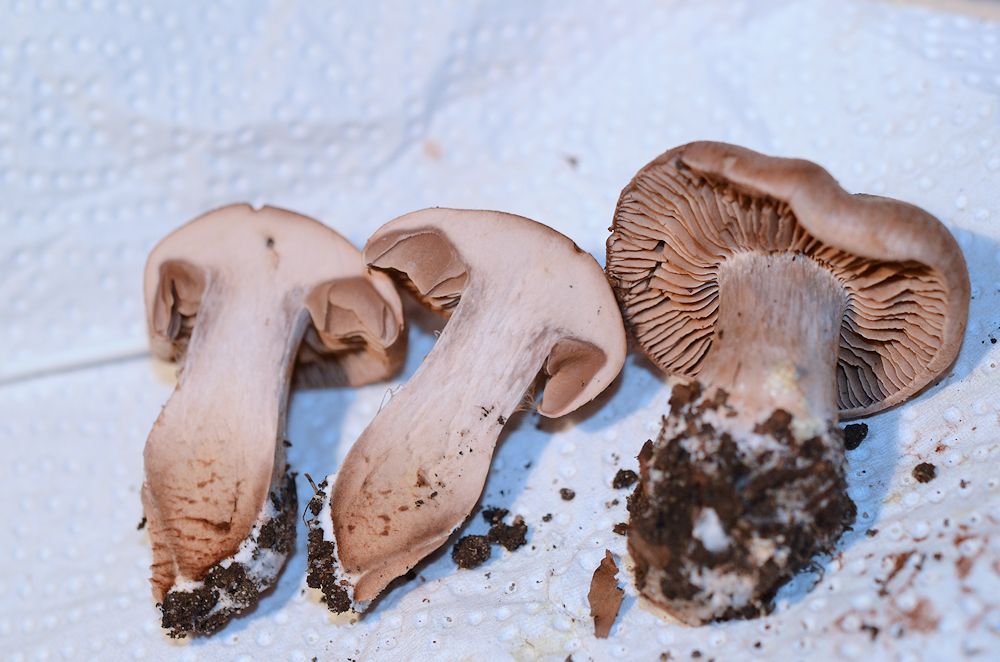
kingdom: Fungi
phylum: Basidiomycota
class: Agaricomycetes
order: Agaricales
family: Cortinariaceae
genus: Cortinarius
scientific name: Cortinarius testaceomicaceus
